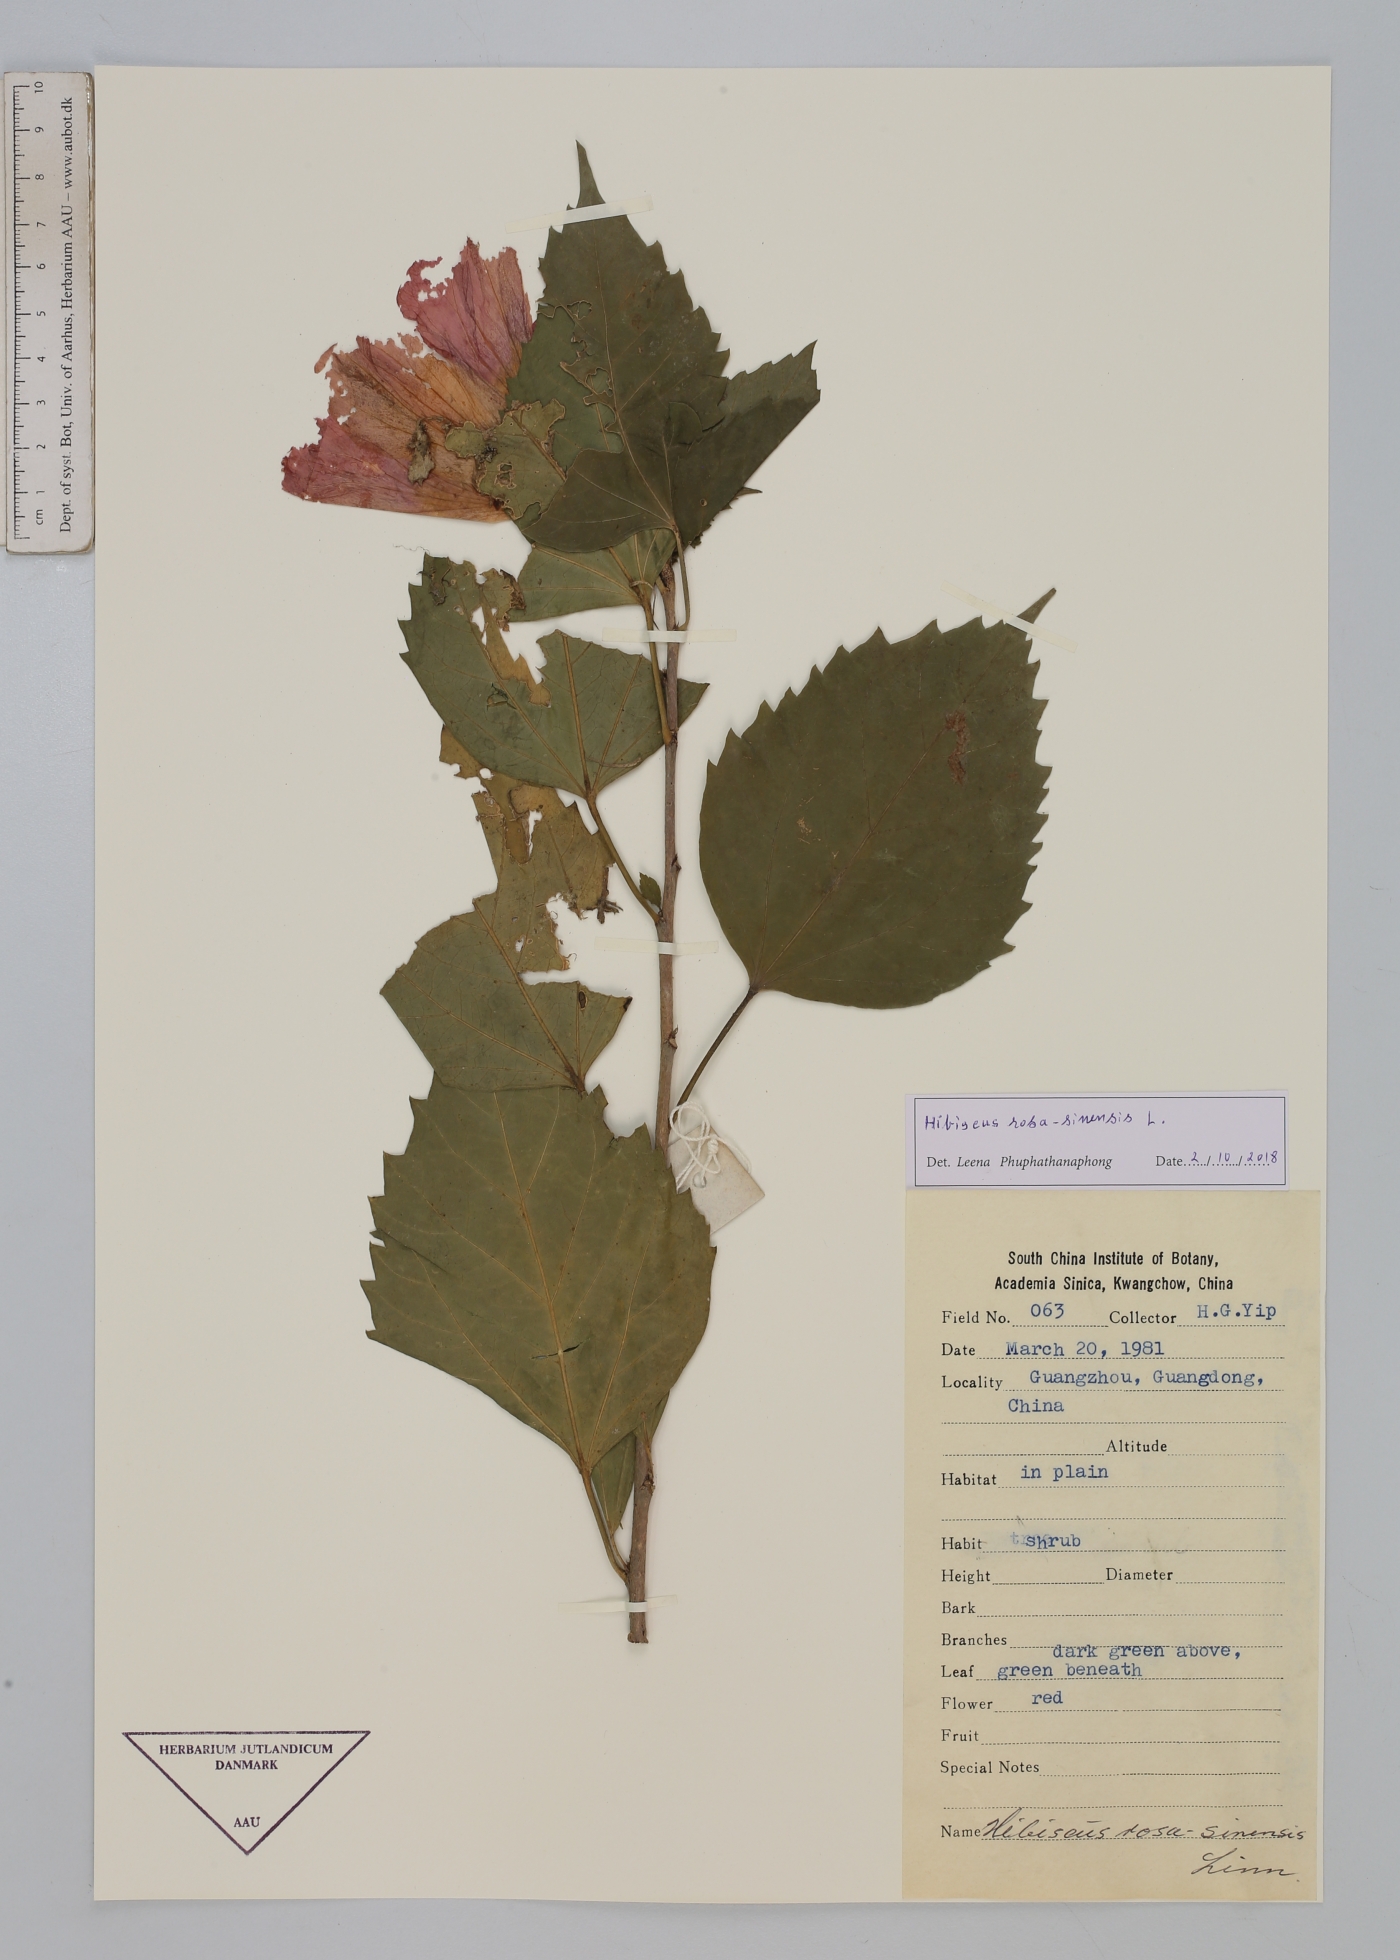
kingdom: Plantae
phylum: Tracheophyta
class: Magnoliopsida
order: Malvales
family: Malvaceae
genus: Hibiscus
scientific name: Hibiscus rosa-sinensis
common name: Hibiscus
